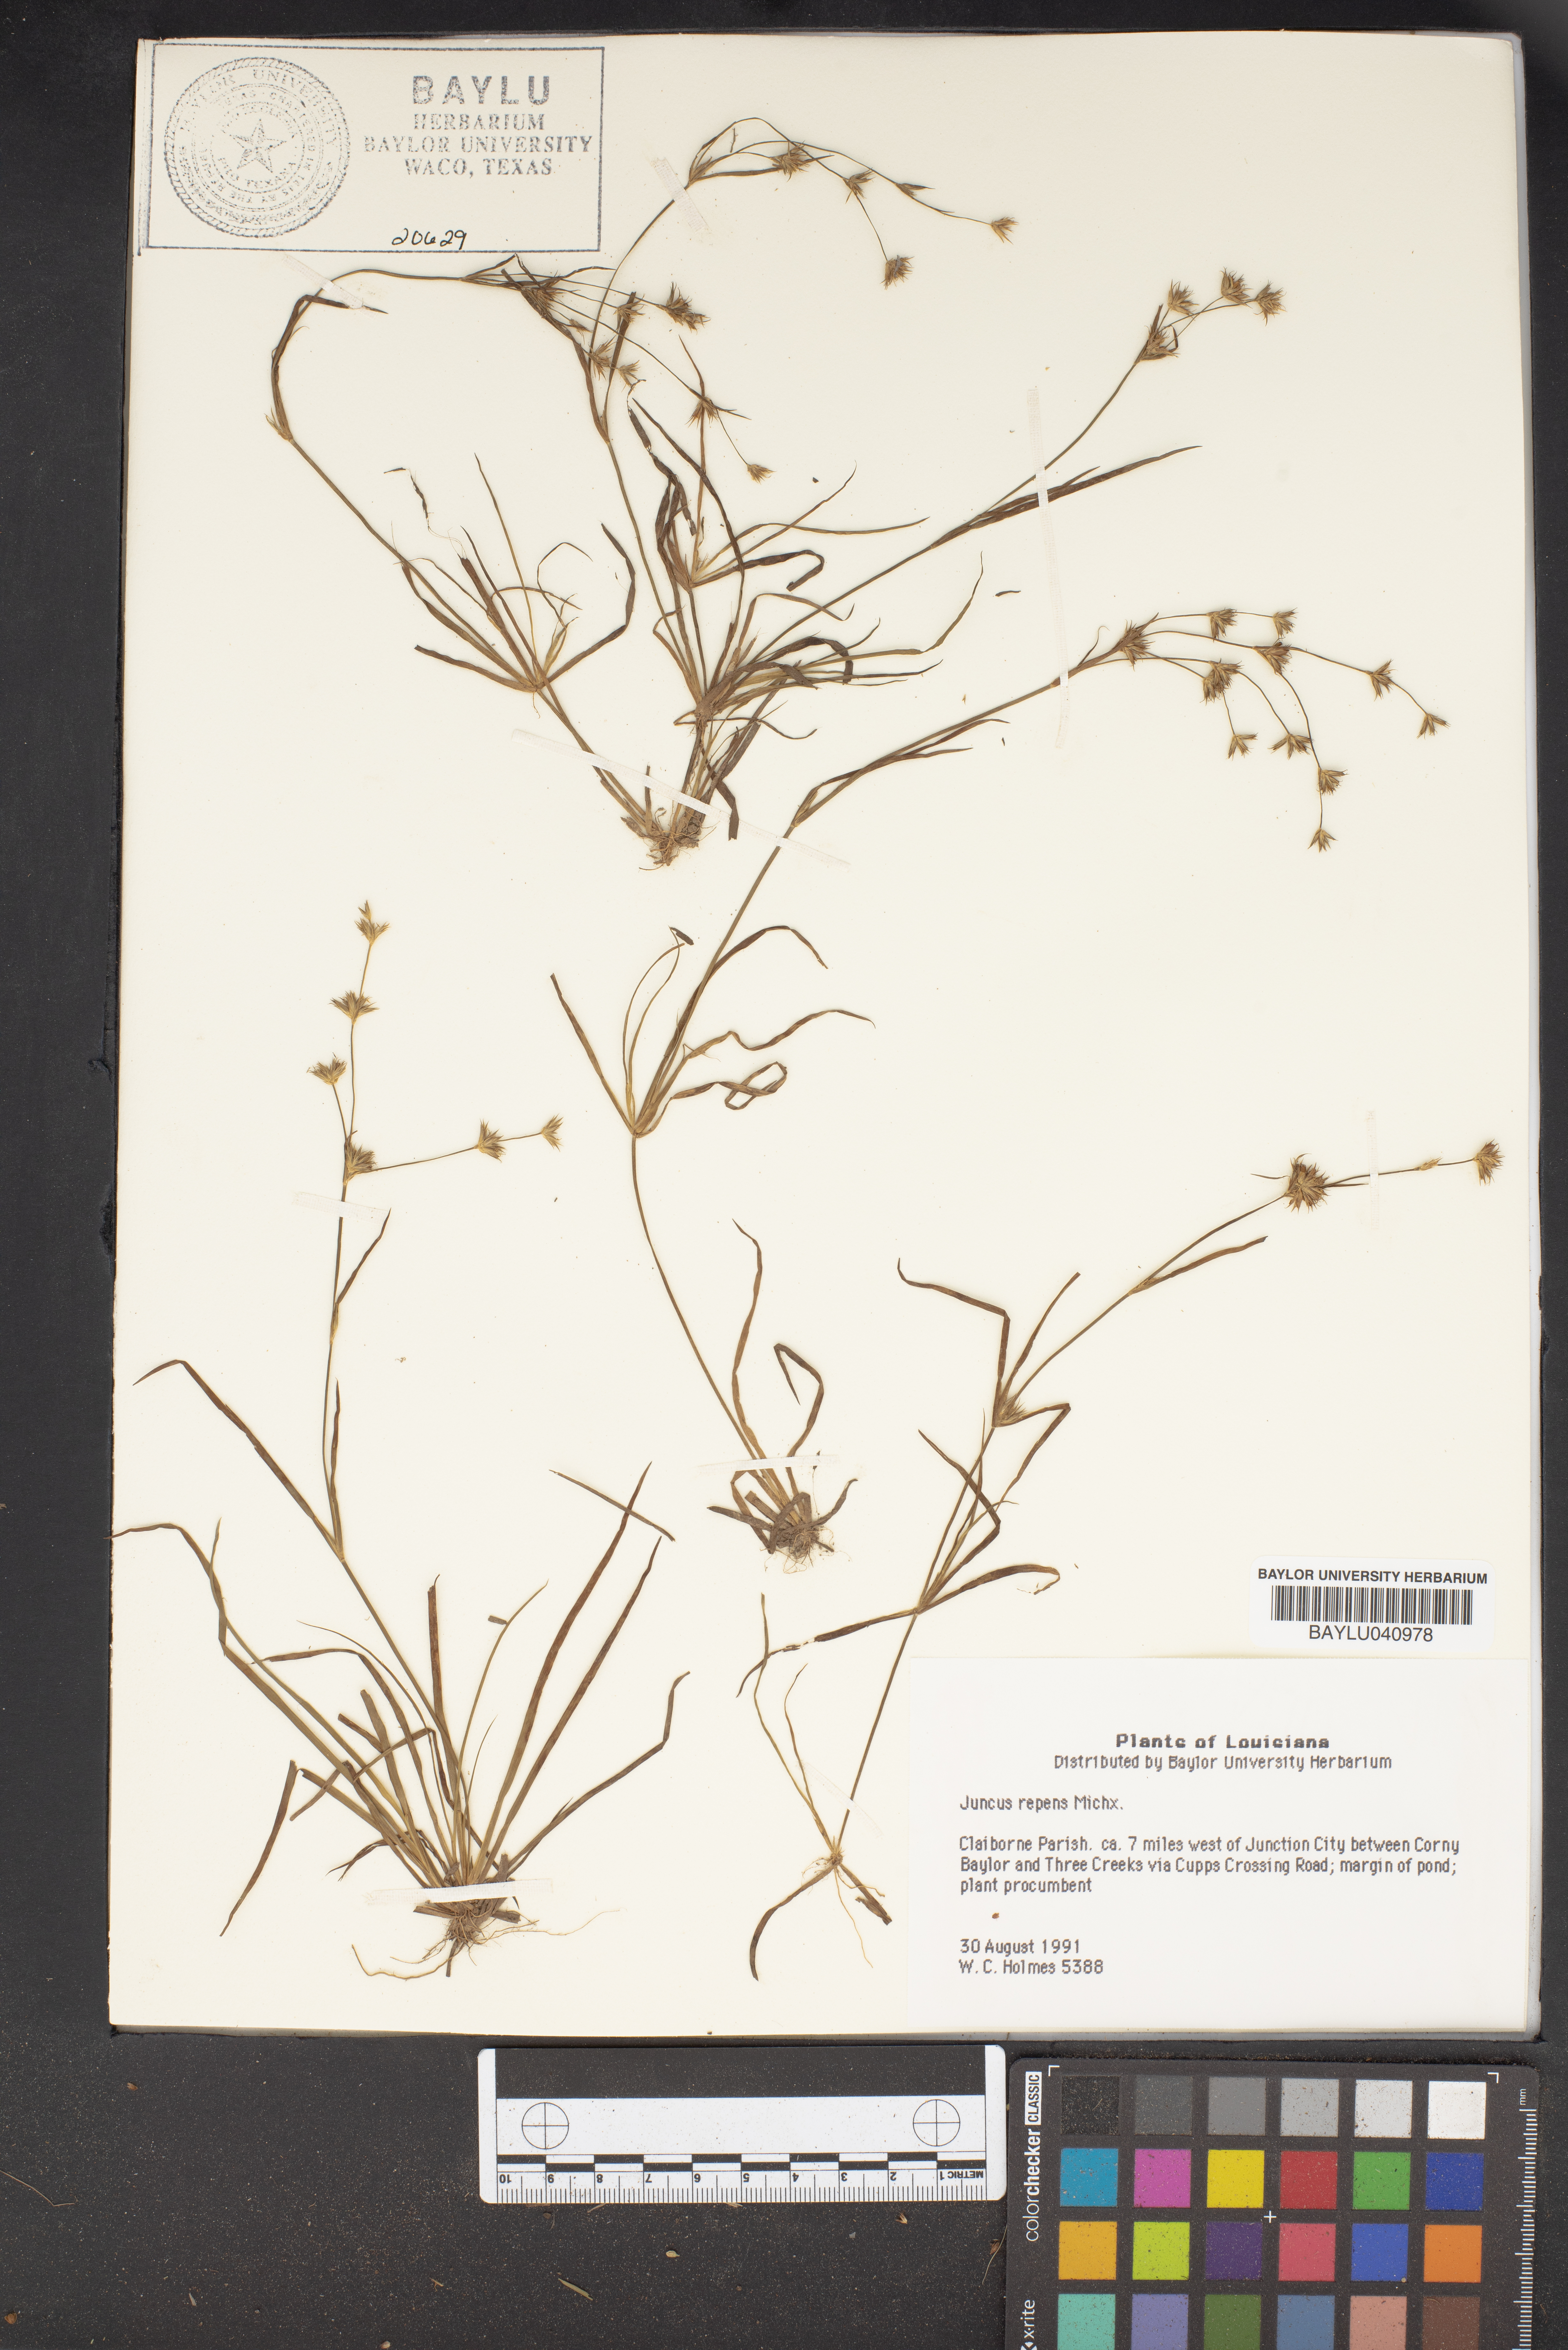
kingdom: Plantae
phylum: Tracheophyta
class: Liliopsida
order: Poales
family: Juncaceae
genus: Juncus
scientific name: Juncus repens
